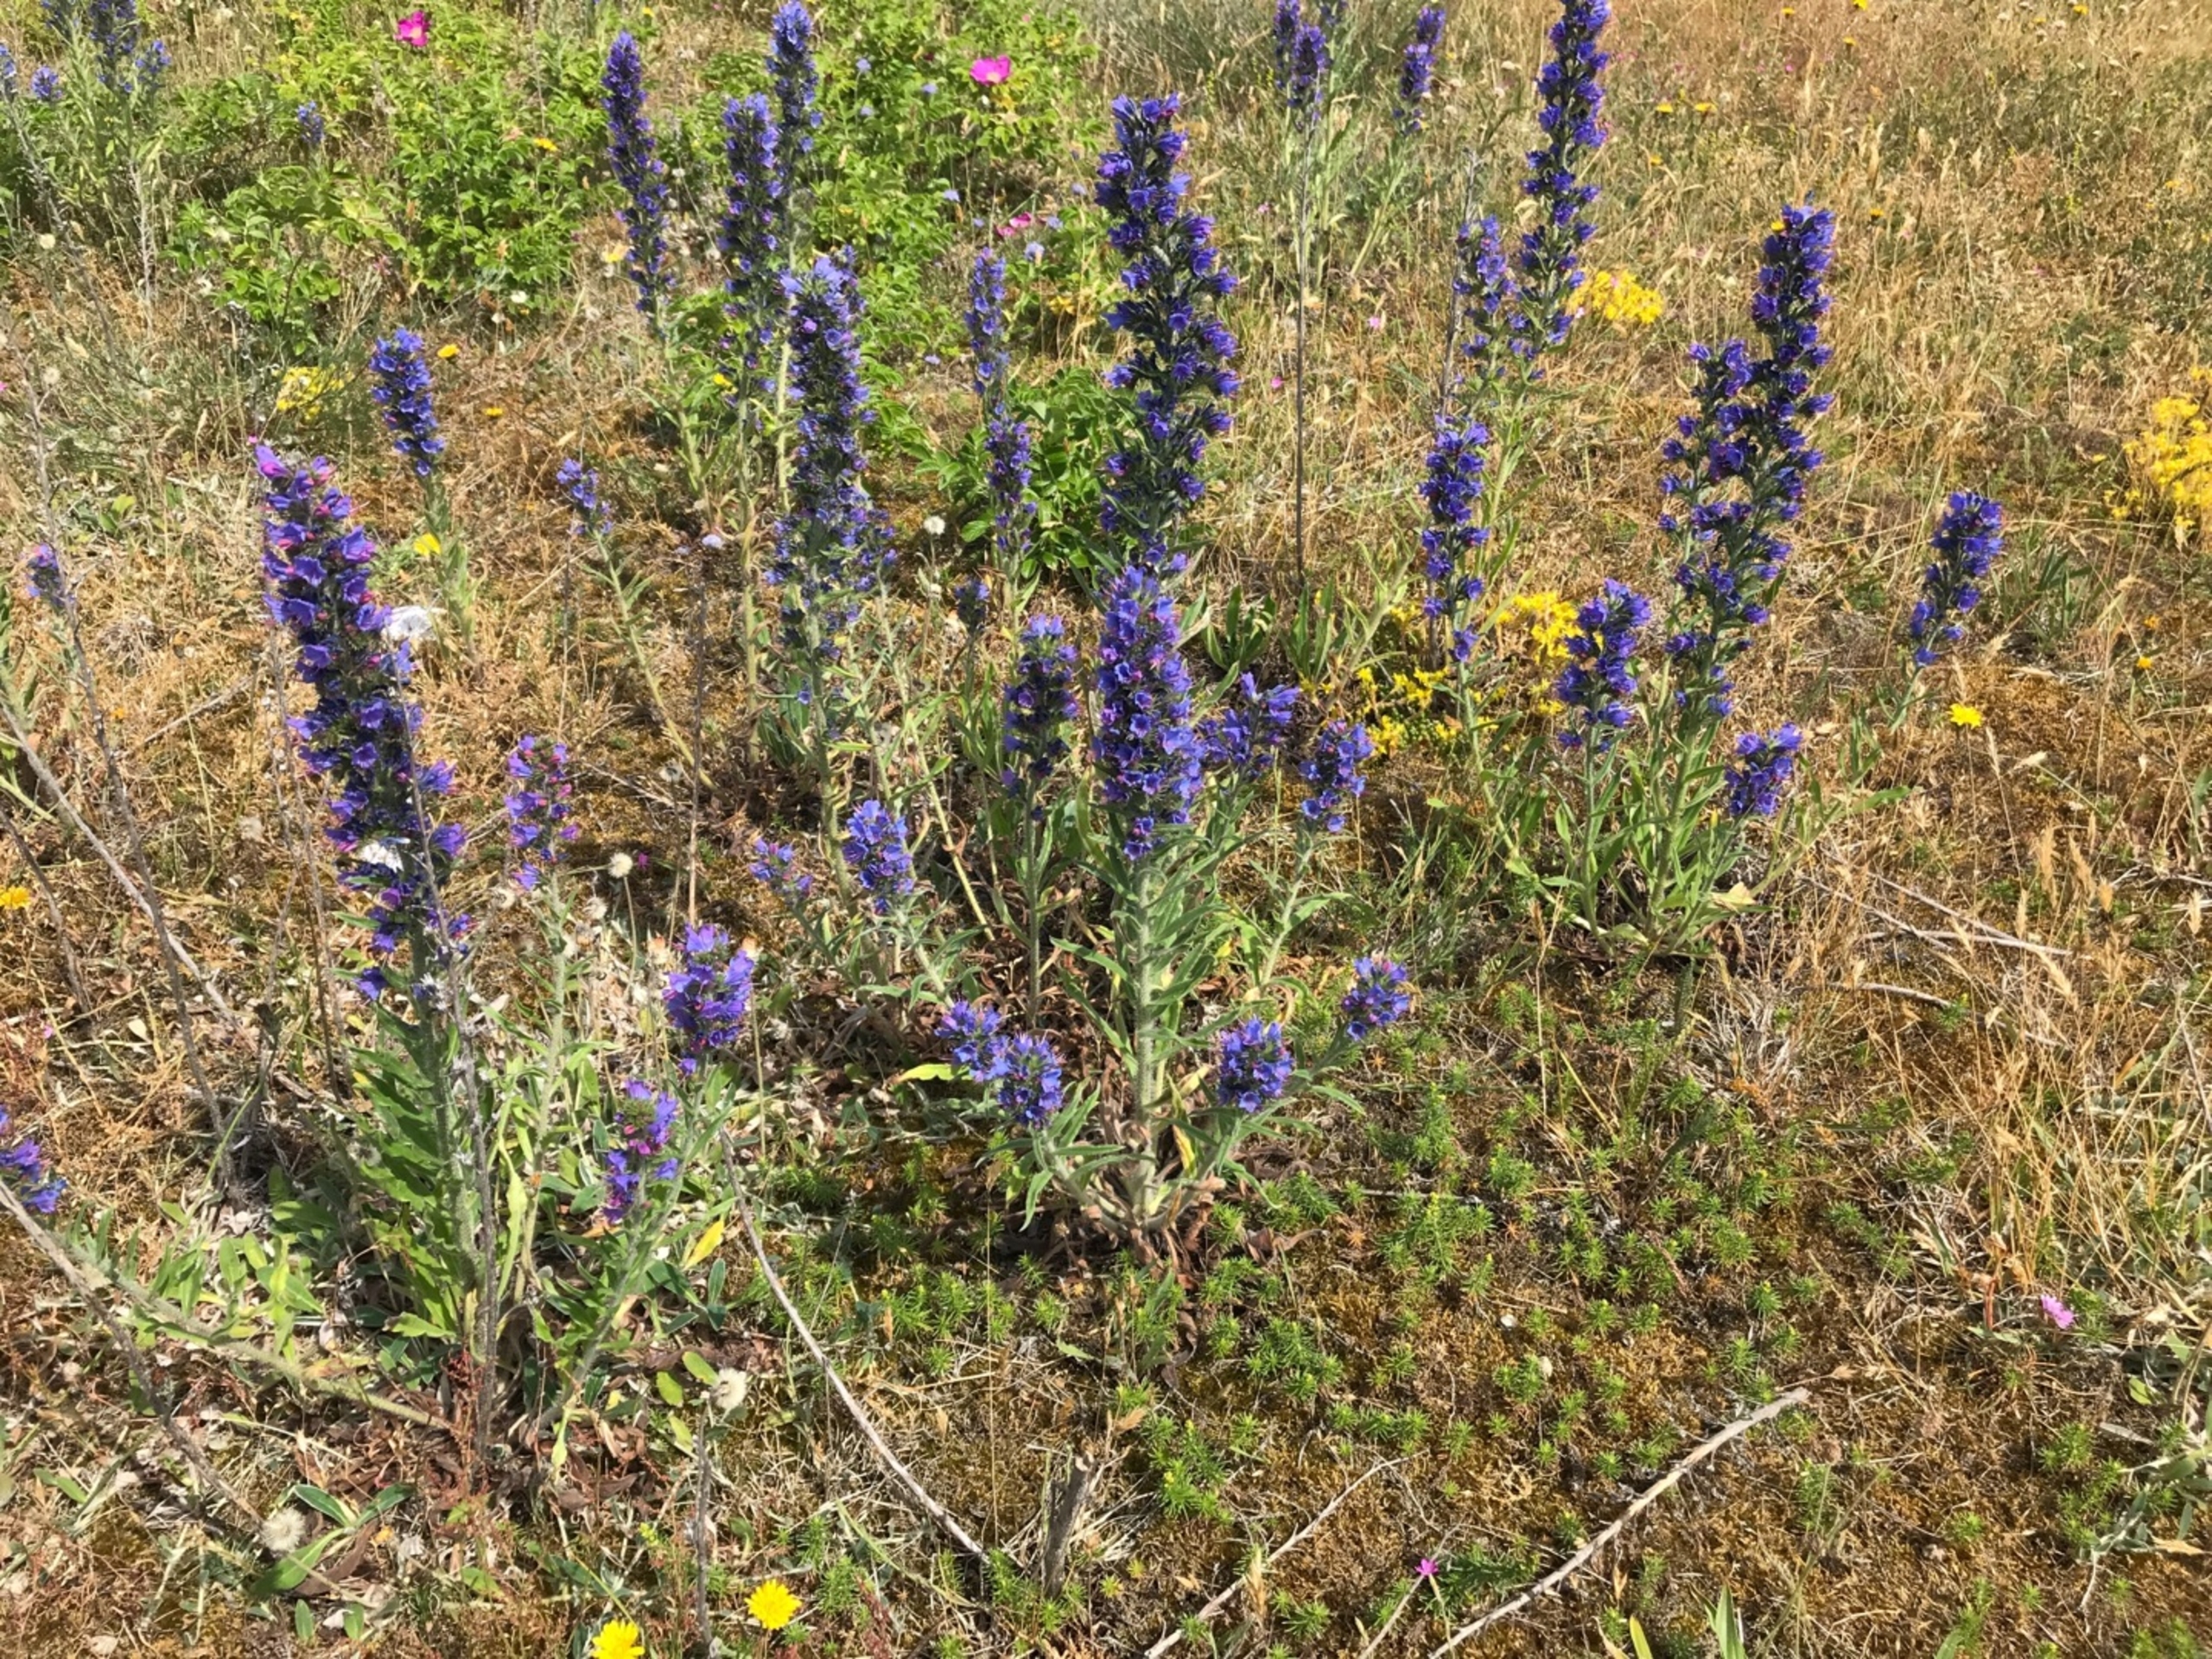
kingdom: Plantae
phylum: Tracheophyta
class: Magnoliopsida
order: Boraginales
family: Boraginaceae
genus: Echium
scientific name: Echium vulgare
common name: Slangehoved
